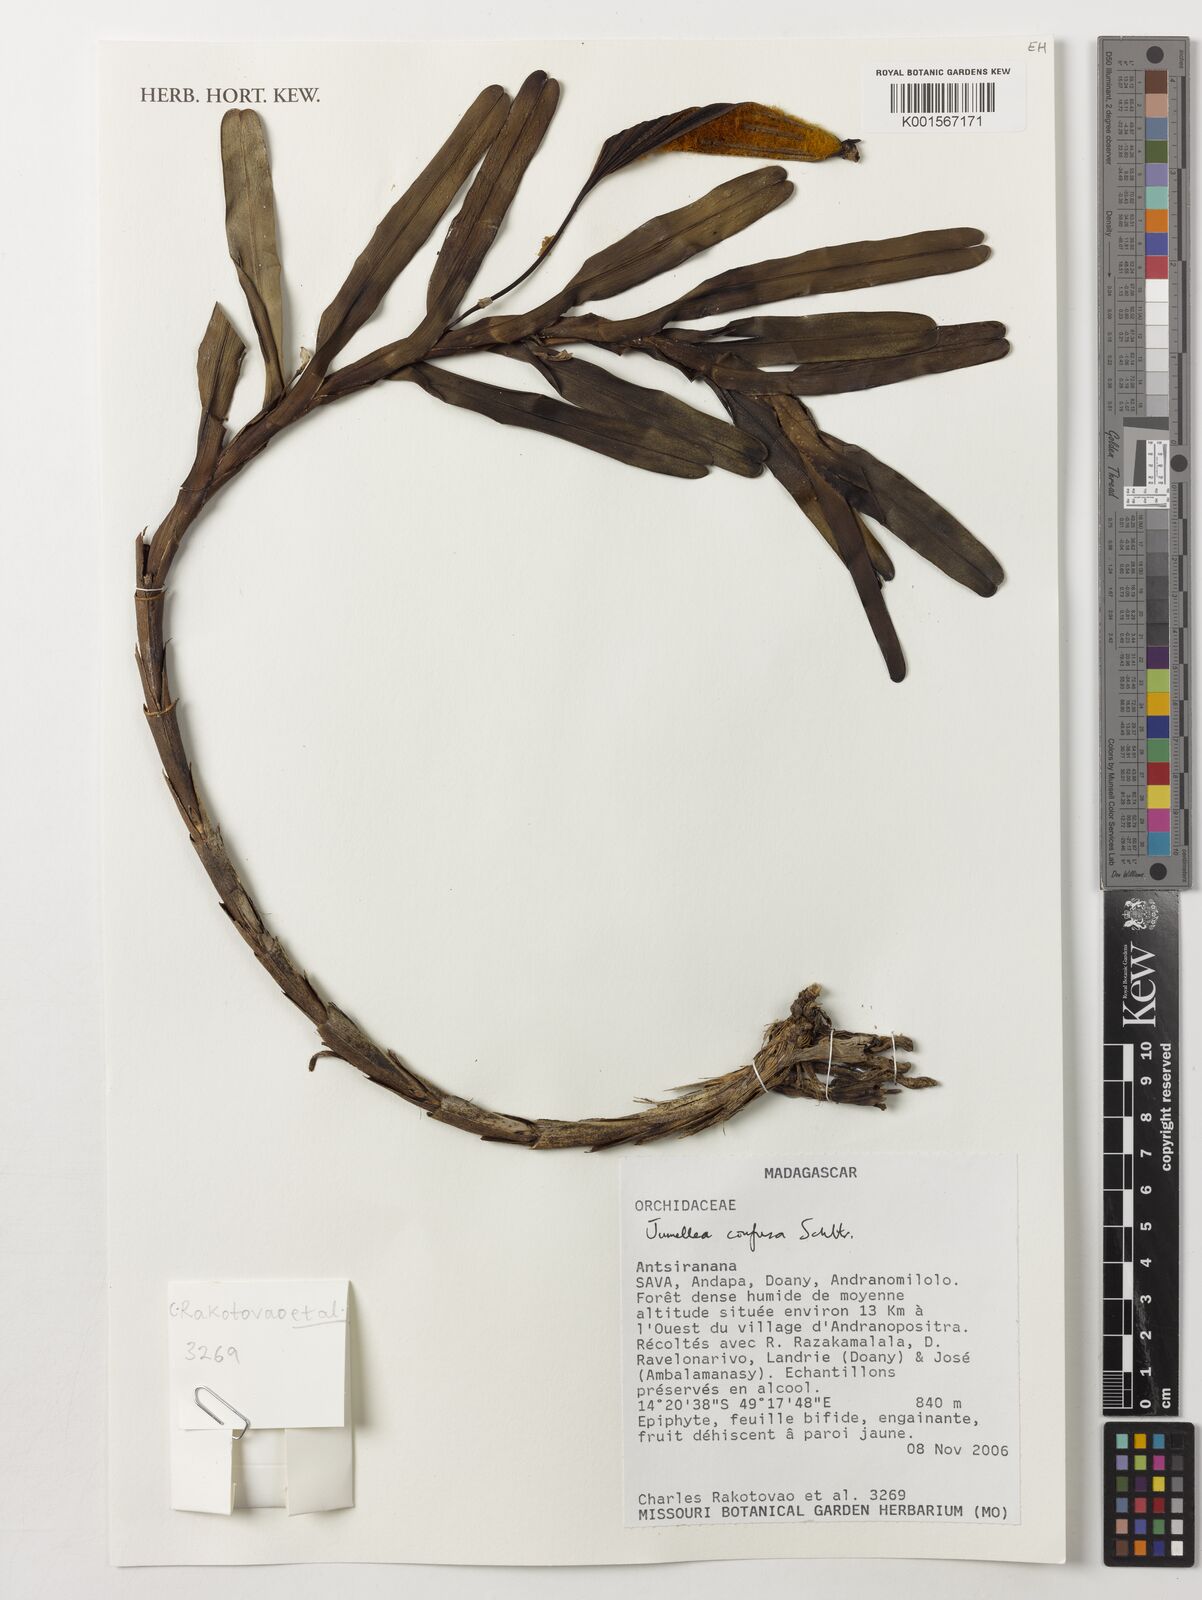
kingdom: Plantae
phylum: Tracheophyta
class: Liliopsida
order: Asparagales
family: Orchidaceae
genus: Jumellea
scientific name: Jumellea confusa
